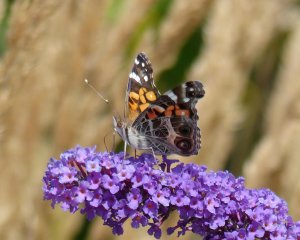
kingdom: Animalia
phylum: Arthropoda
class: Insecta
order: Lepidoptera
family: Nymphalidae
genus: Vanessa
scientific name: Vanessa virginiensis
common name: American Lady
